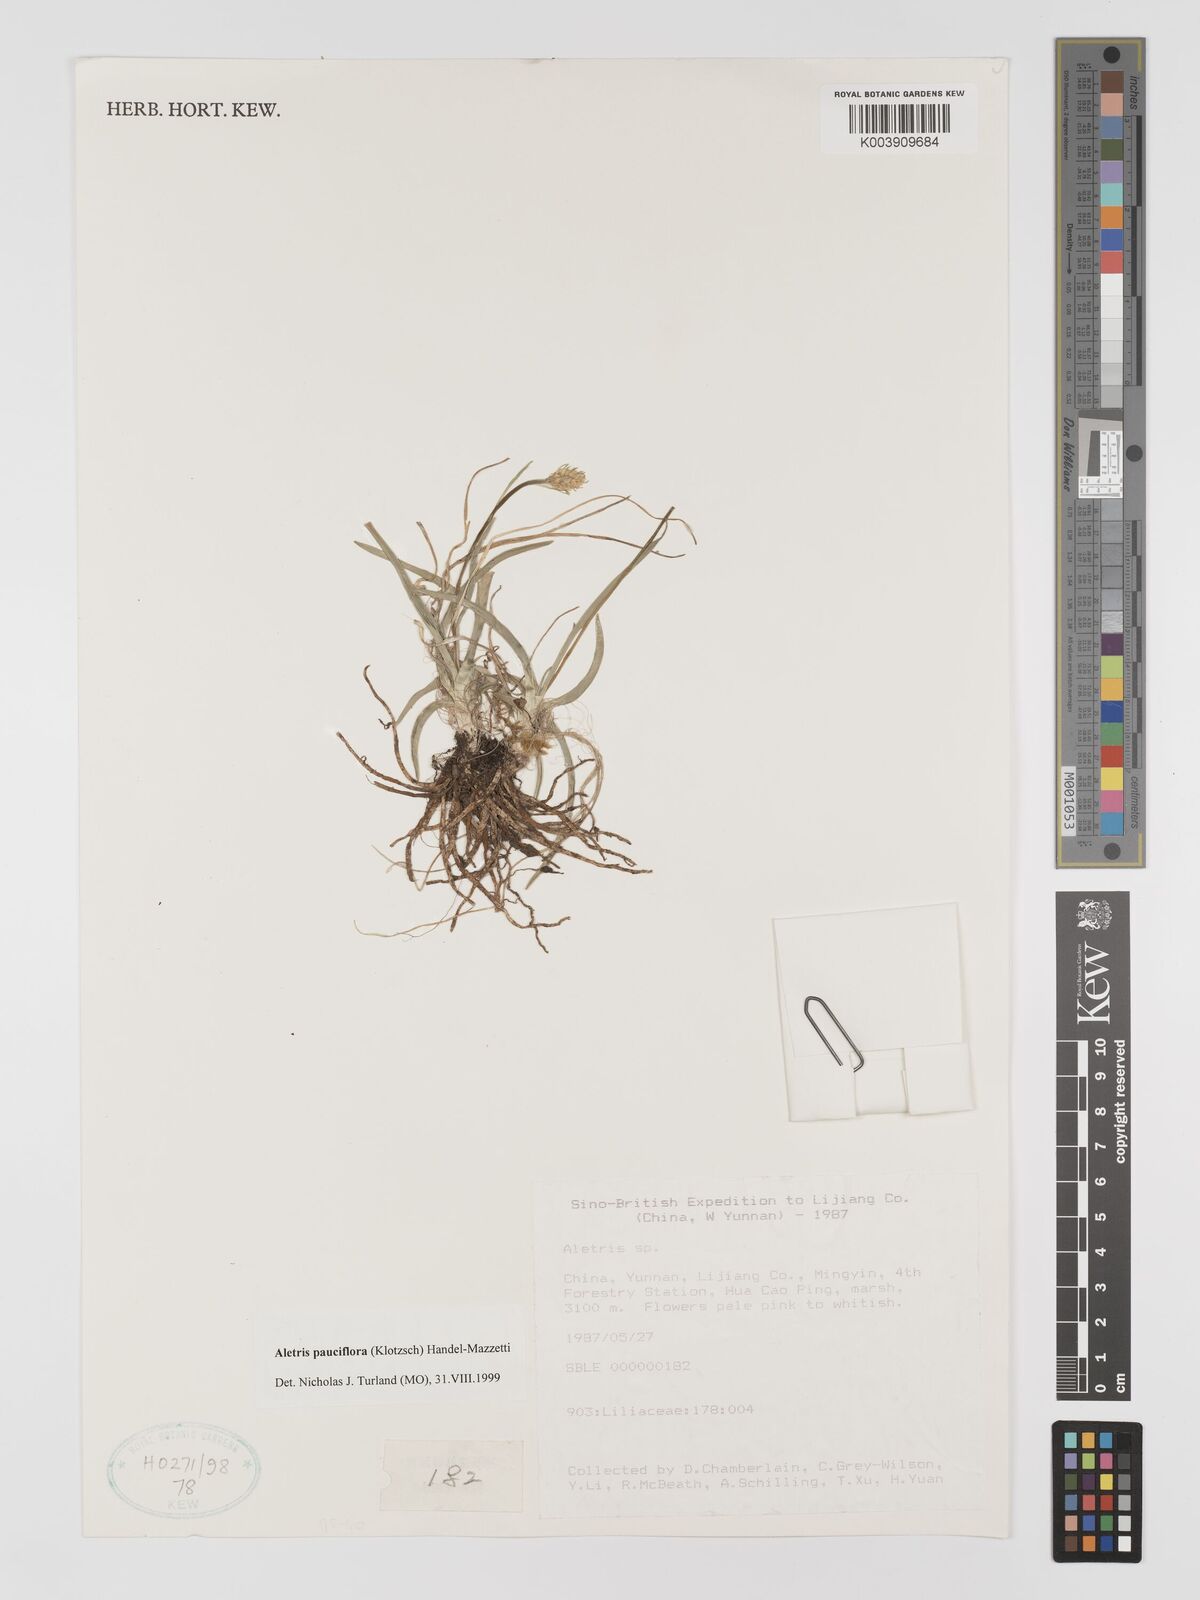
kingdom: Plantae
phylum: Tracheophyta
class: Liliopsida
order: Dioscoreales
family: Nartheciaceae
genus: Aletris
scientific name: Aletris pauciflora
